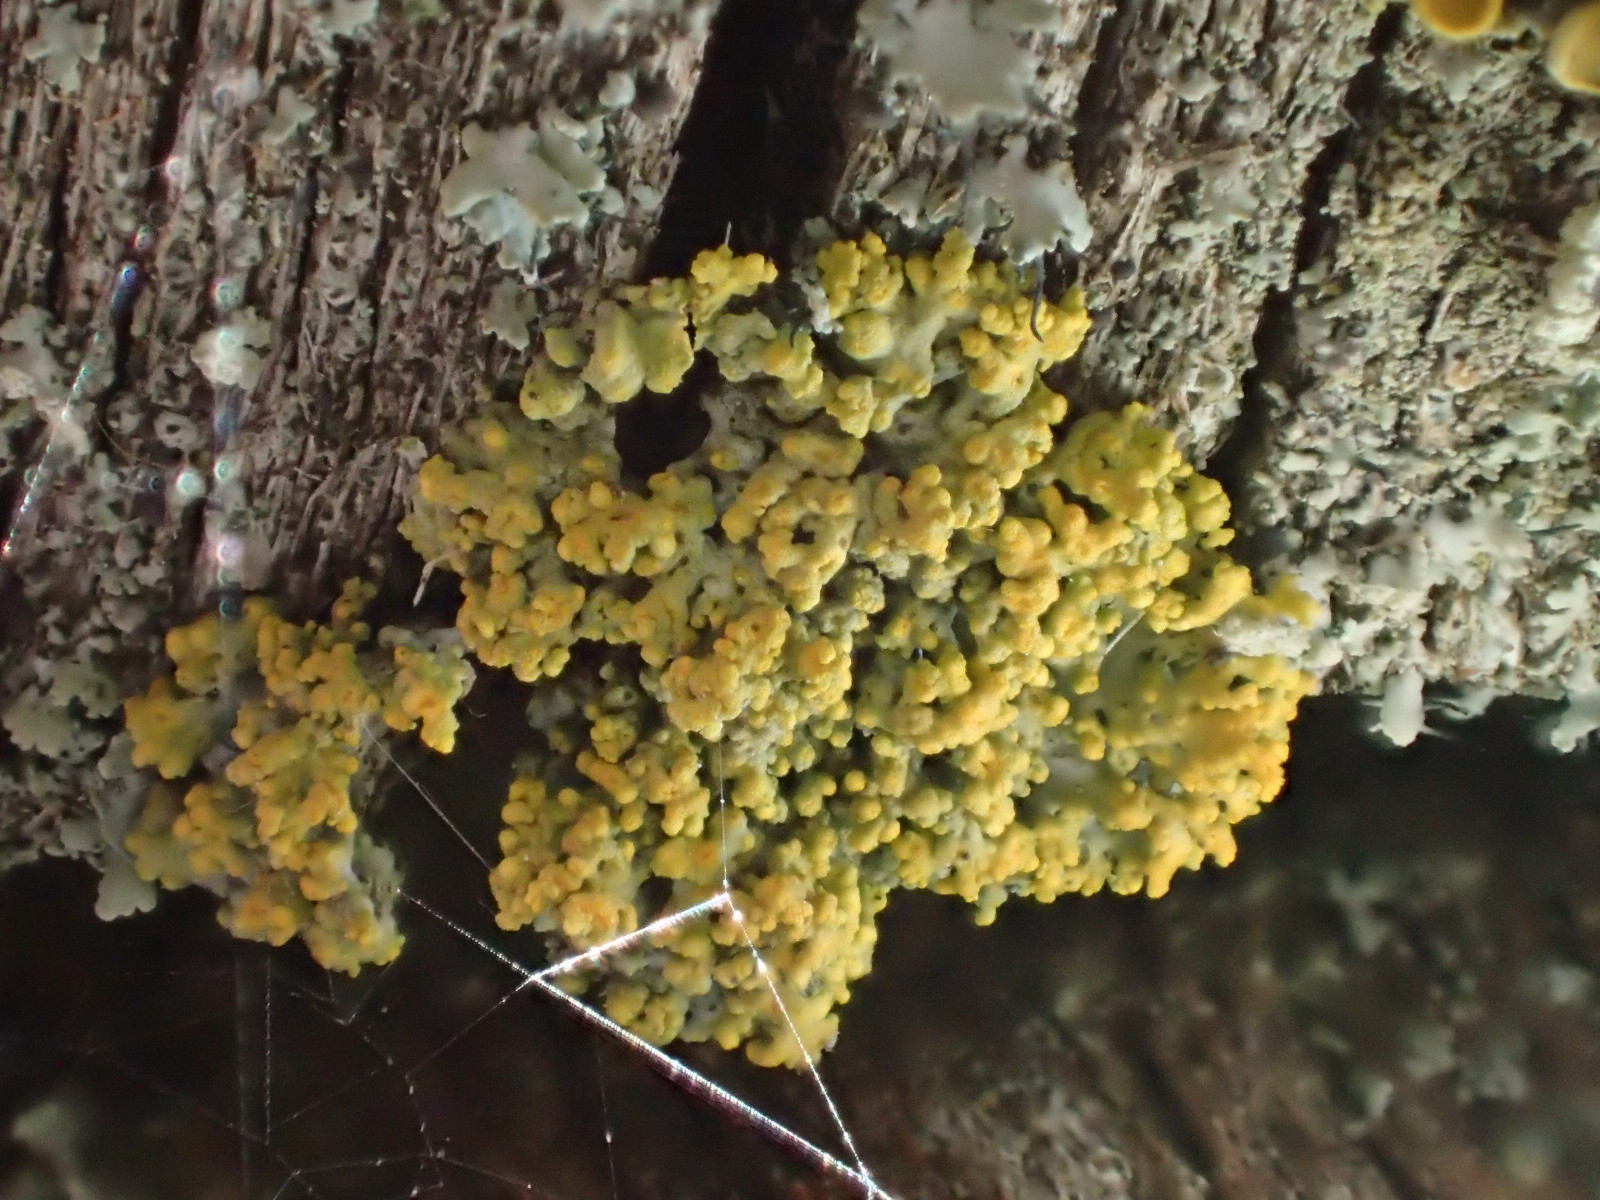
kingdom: Fungi
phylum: Ascomycota
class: Lecanoromycetes
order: Teloschistales
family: Teloschistaceae
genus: Polycauliona
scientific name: Polycauliona polycarpa
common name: mangefrugtet orangelav
